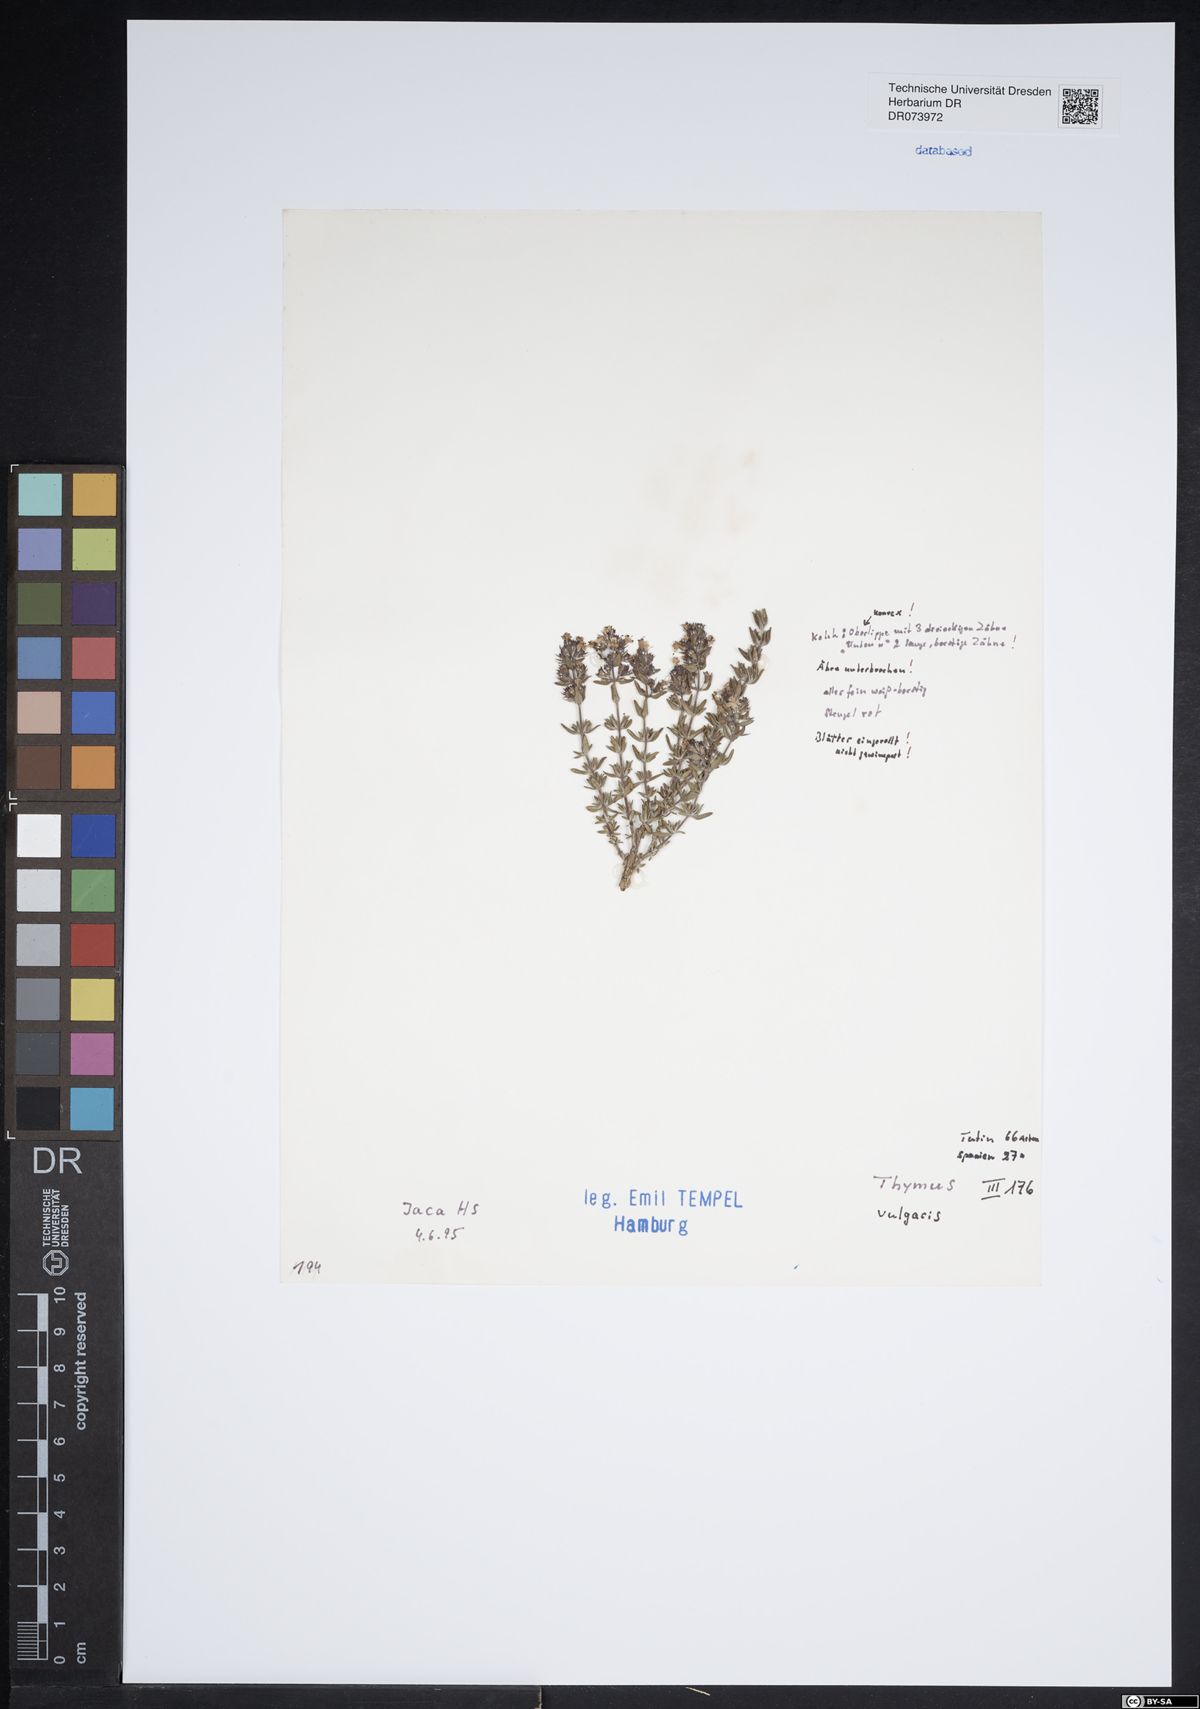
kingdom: Plantae
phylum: Tracheophyta
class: Magnoliopsida
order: Lamiales
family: Lamiaceae
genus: Thymus
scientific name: Thymus vulgaris
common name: Garden thyme
